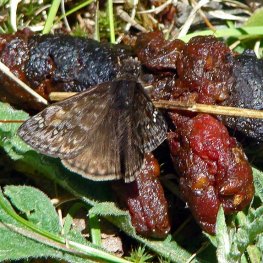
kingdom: Animalia
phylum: Arthropoda
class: Insecta
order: Lepidoptera
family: Hesperiidae
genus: Gesta
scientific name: Gesta
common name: Juvenal's Duskywing
